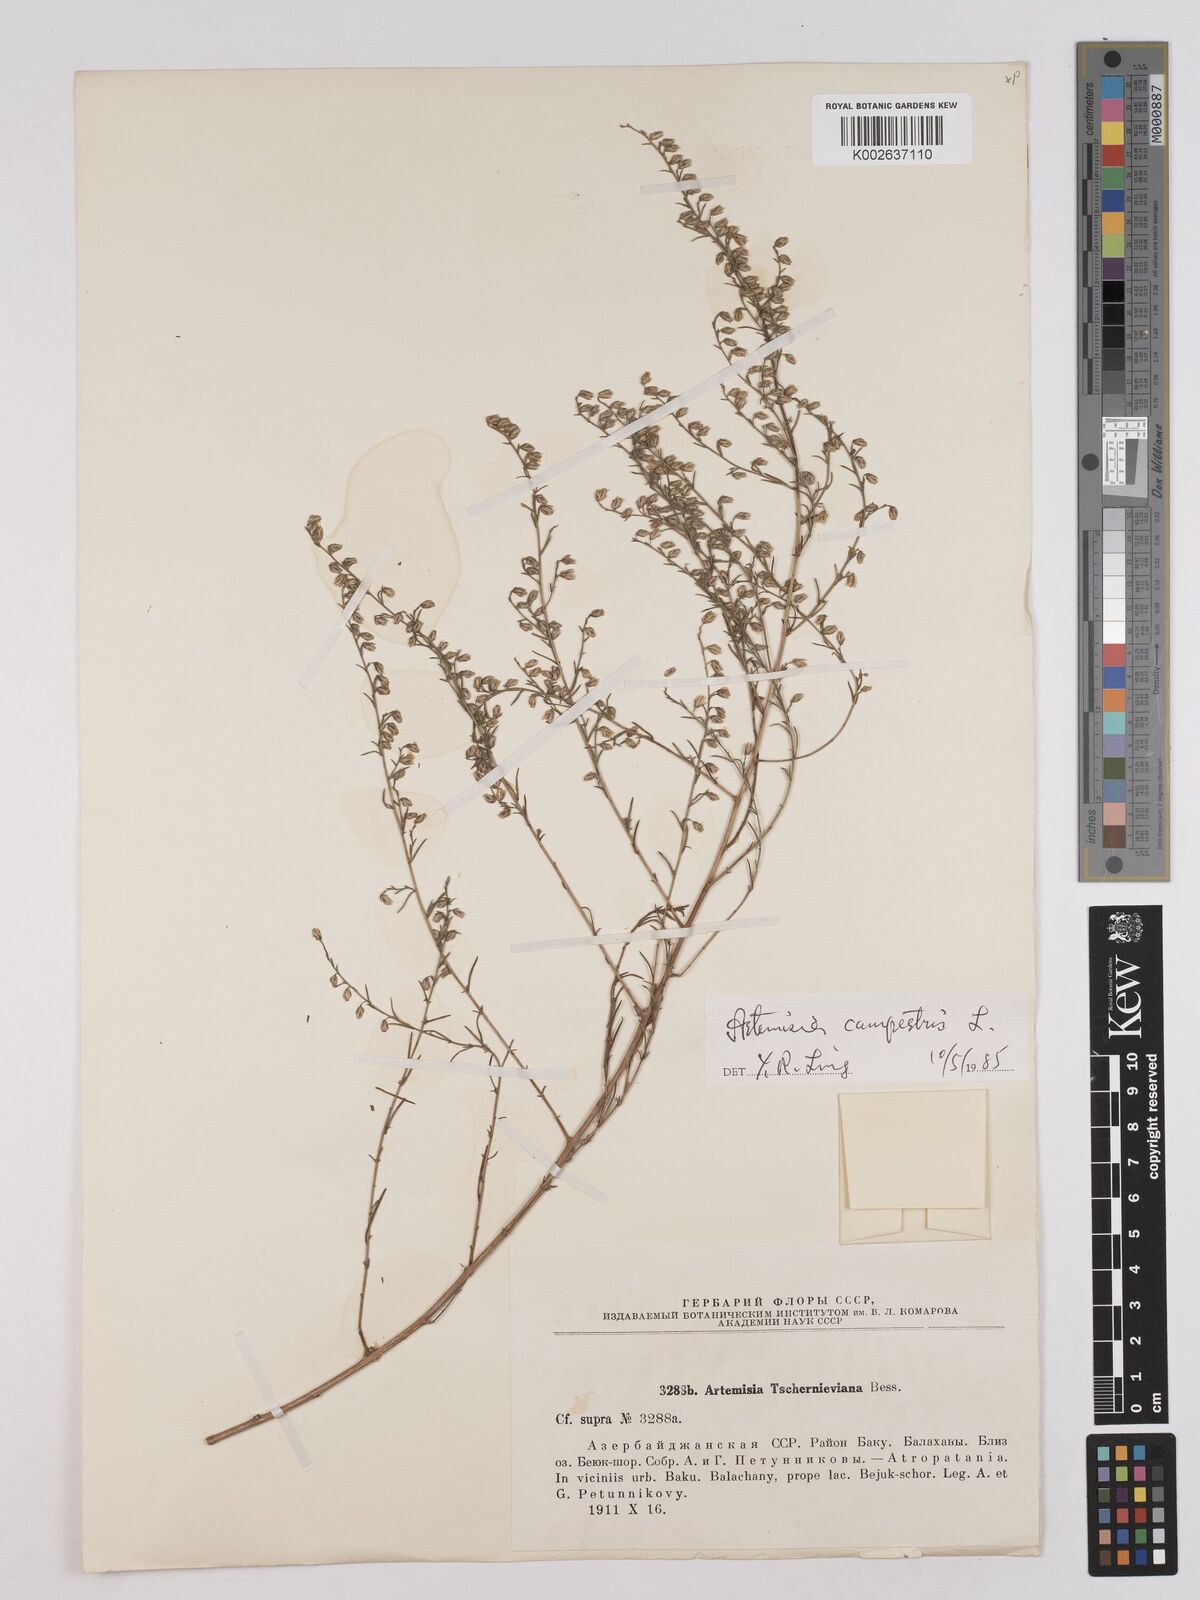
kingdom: Plantae
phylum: Tracheophyta
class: Magnoliopsida
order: Asterales
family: Asteraceae
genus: Artemisia
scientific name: Artemisia marschalliana
